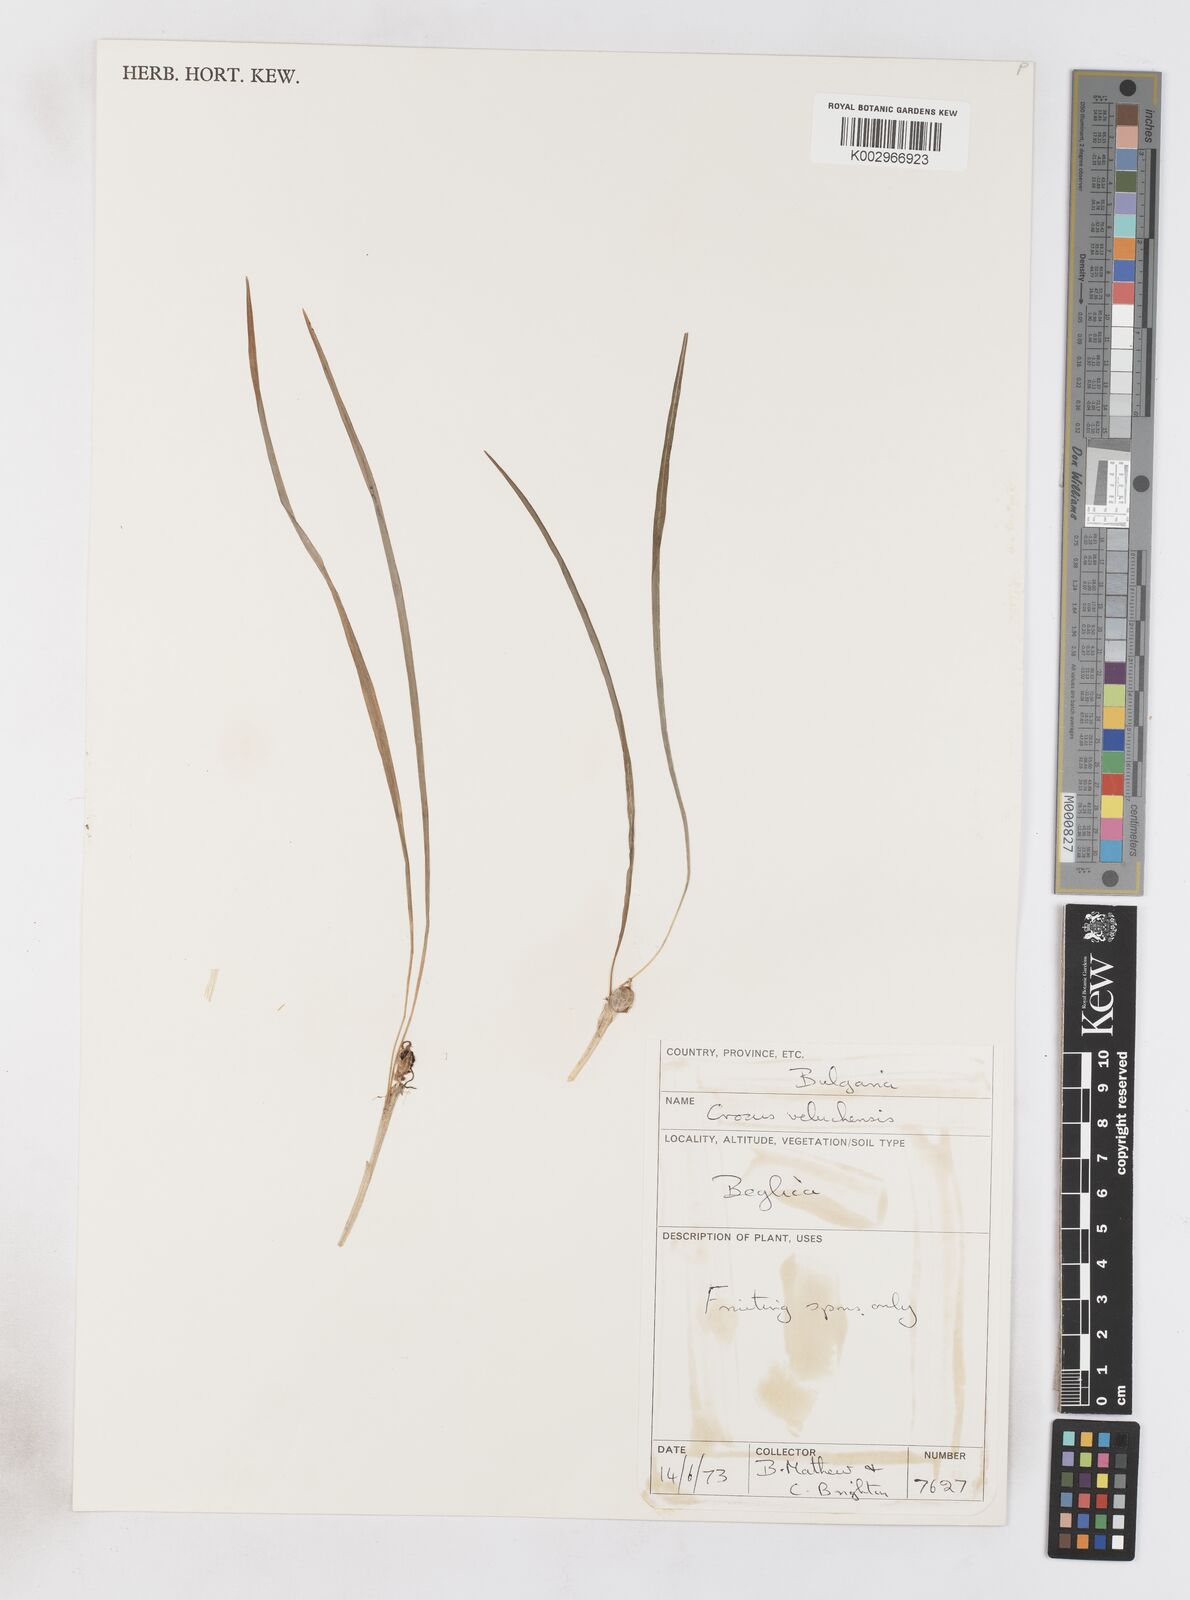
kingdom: Plantae
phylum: Tracheophyta
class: Liliopsida
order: Asparagales
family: Iridaceae
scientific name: Iridaceae
